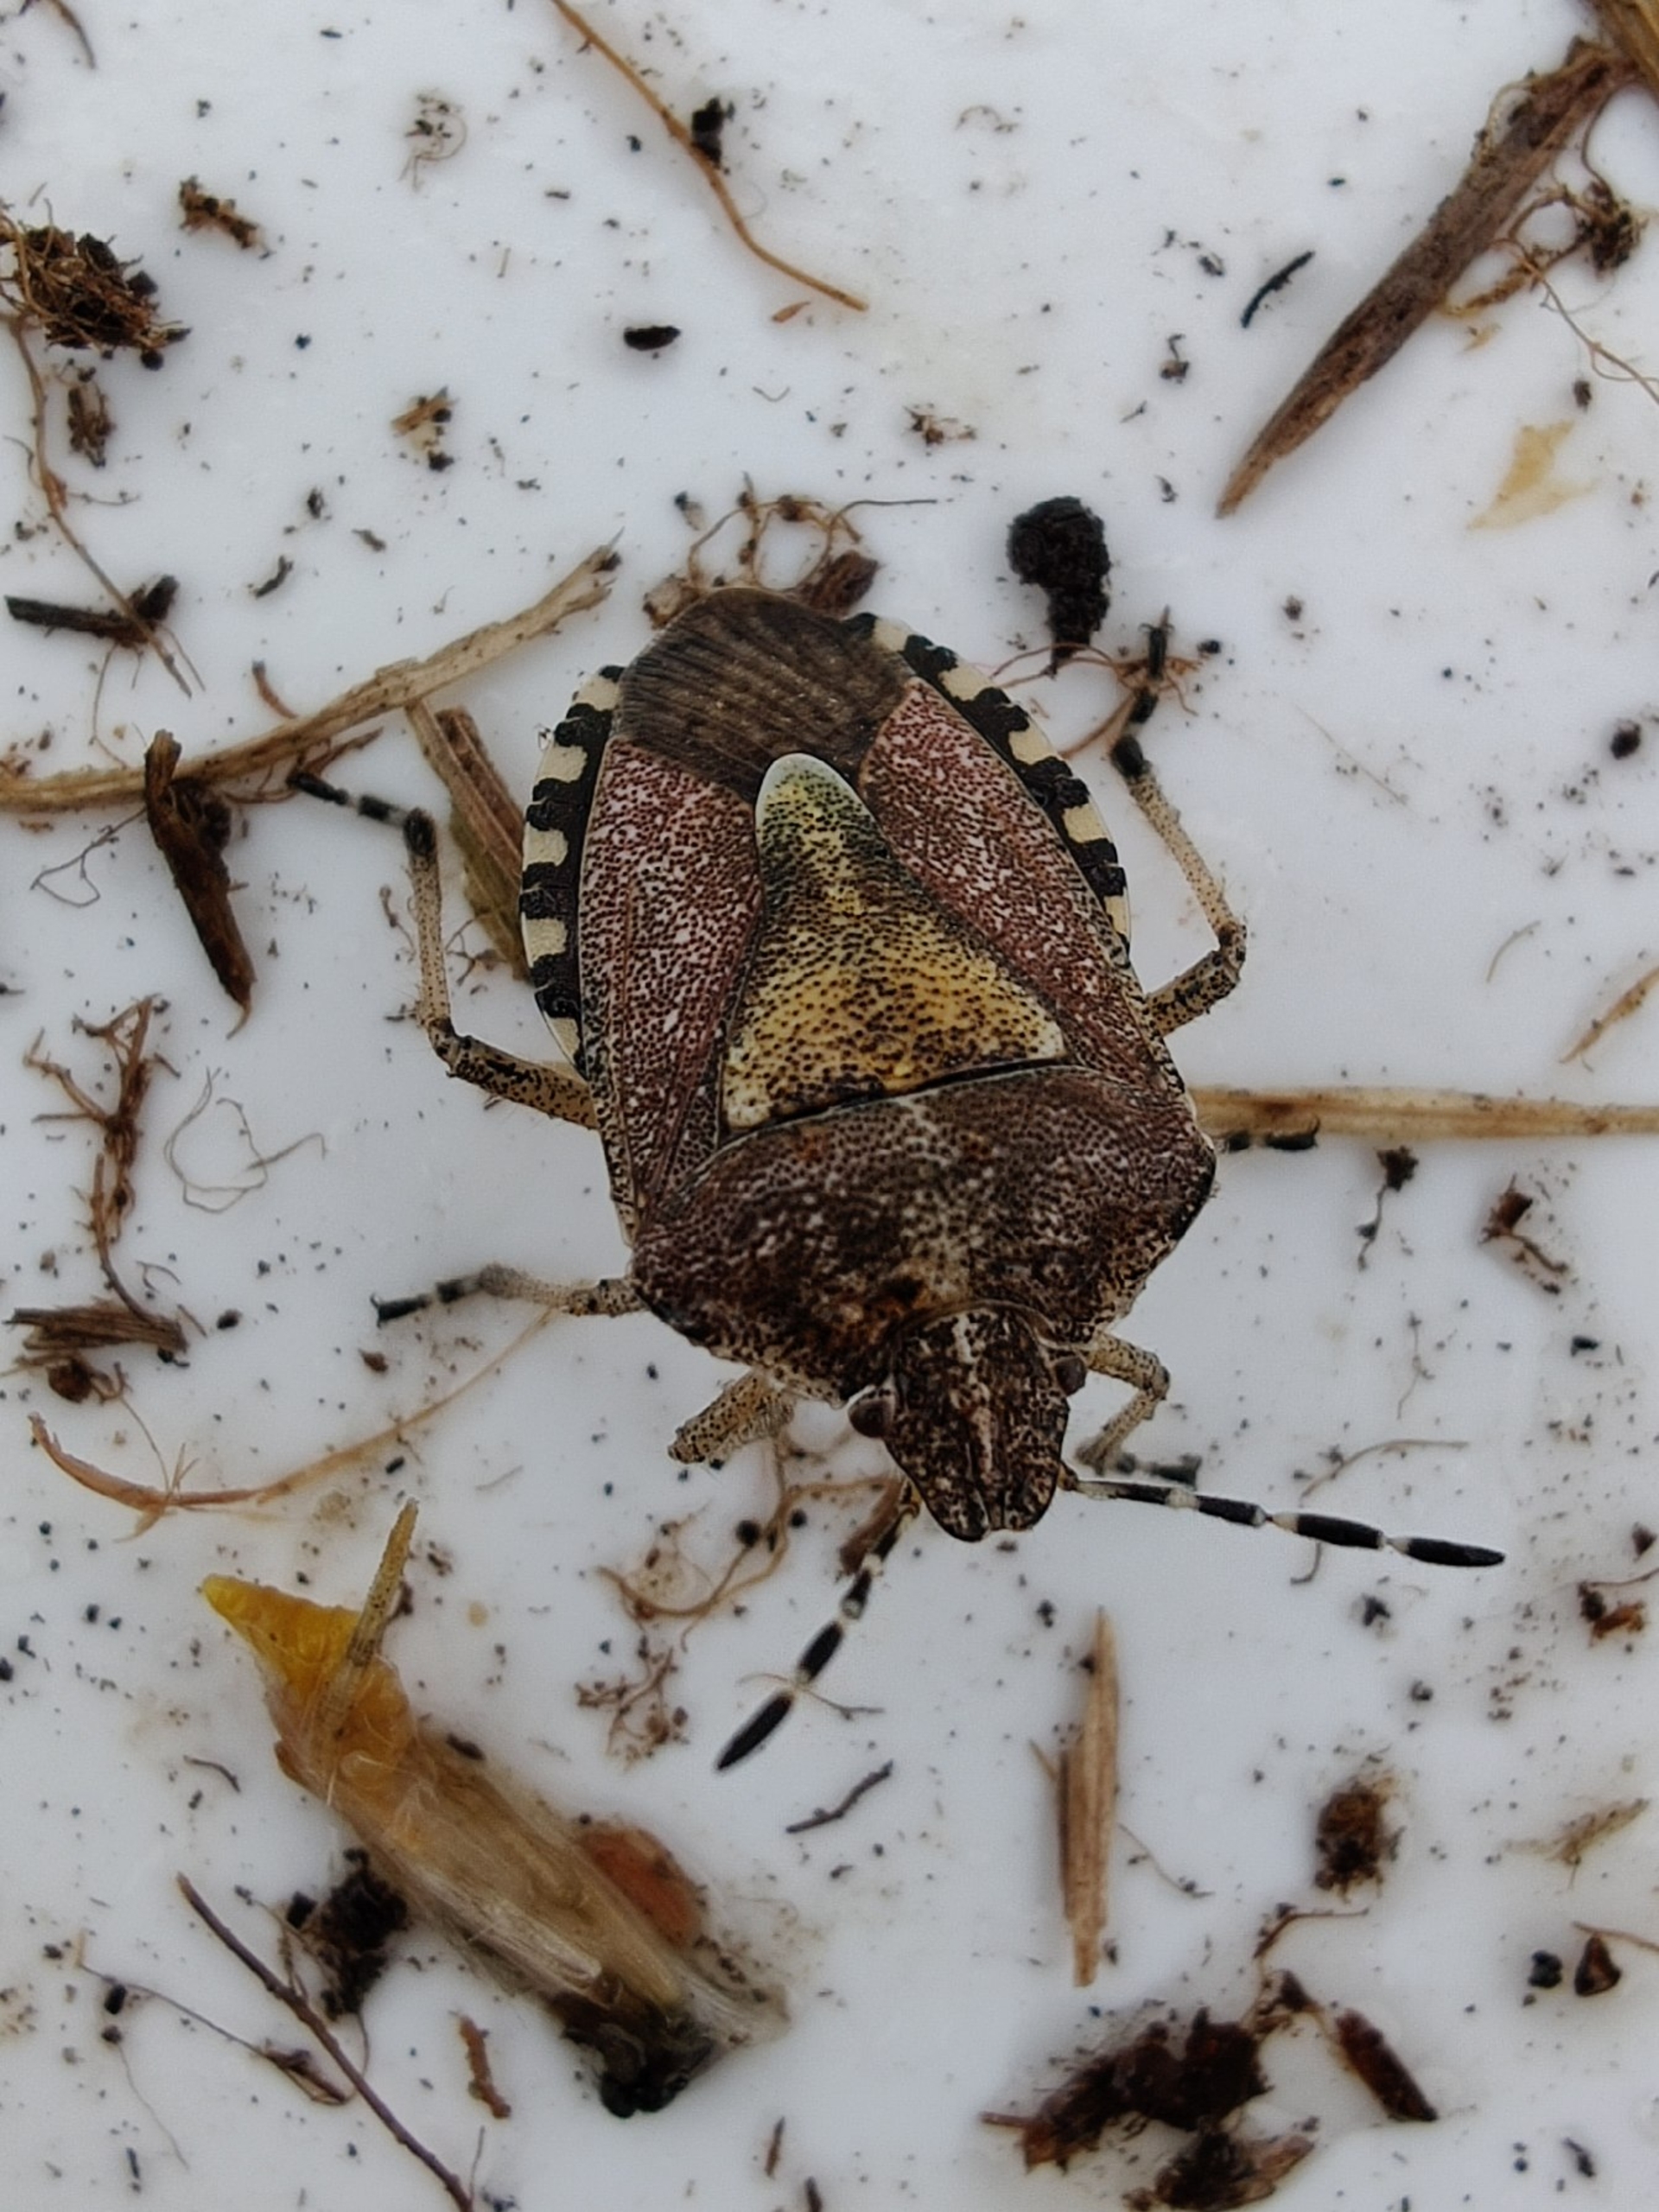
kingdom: Animalia
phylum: Arthropoda
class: Insecta
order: Hemiptera
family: Pentatomidae
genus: Dolycoris
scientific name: Dolycoris baccarum
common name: Almindelig bærtæge
